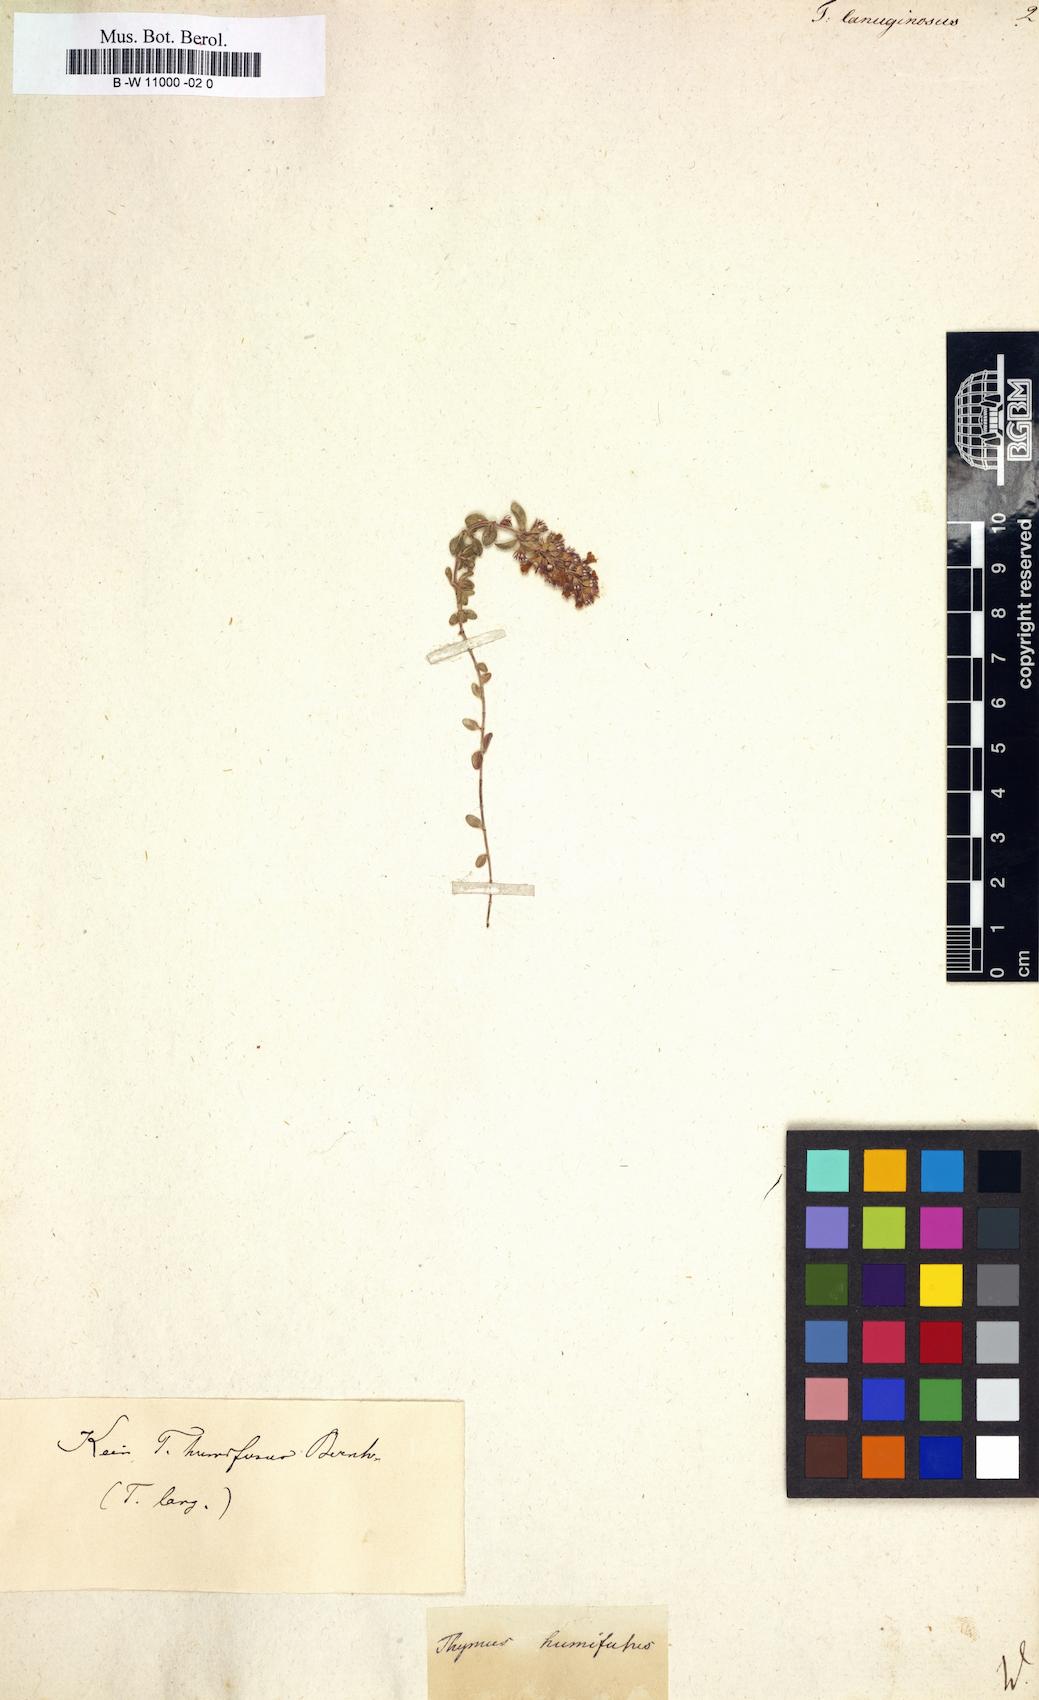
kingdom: Plantae
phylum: Tracheophyta
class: Magnoliopsida
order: Lamiales
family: Lamiaceae
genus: Thymus
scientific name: Thymus pulegioides
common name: Large thyme
